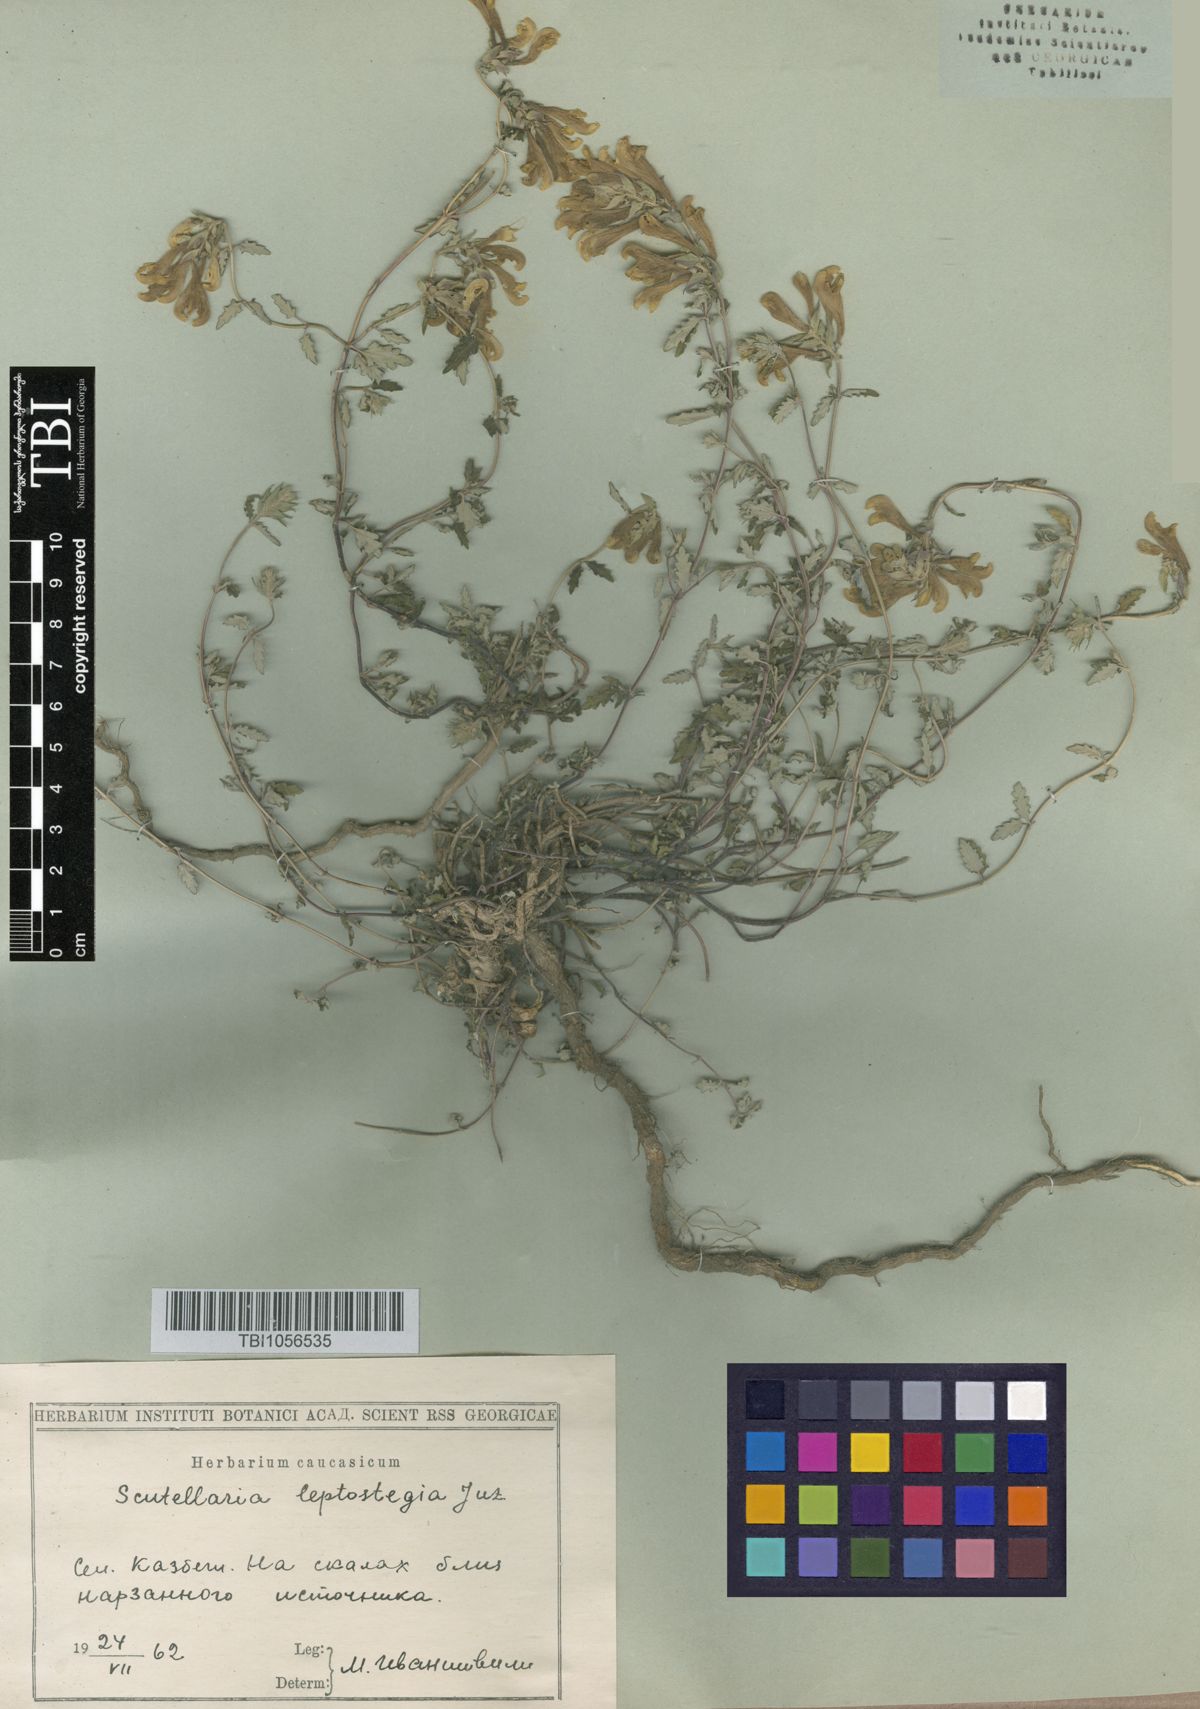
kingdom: Plantae
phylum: Tracheophyta
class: Magnoliopsida
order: Lamiales
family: Lamiaceae
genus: Scutellaria
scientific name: Scutellaria leptostegia
